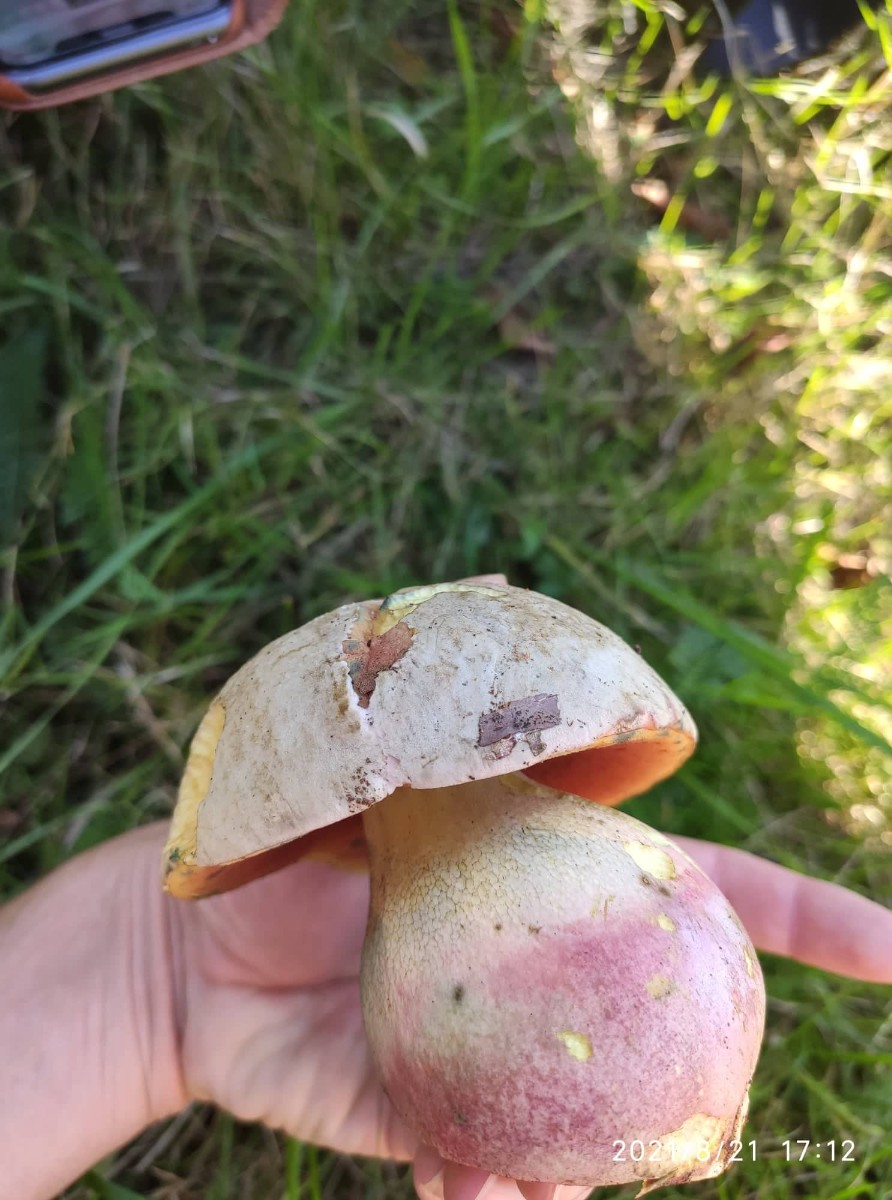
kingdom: Fungi
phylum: Basidiomycota
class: Agaricomycetes
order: Boletales
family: Boletaceae
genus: Rubroboletus
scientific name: Rubroboletus satanas
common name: Satans rørhat
